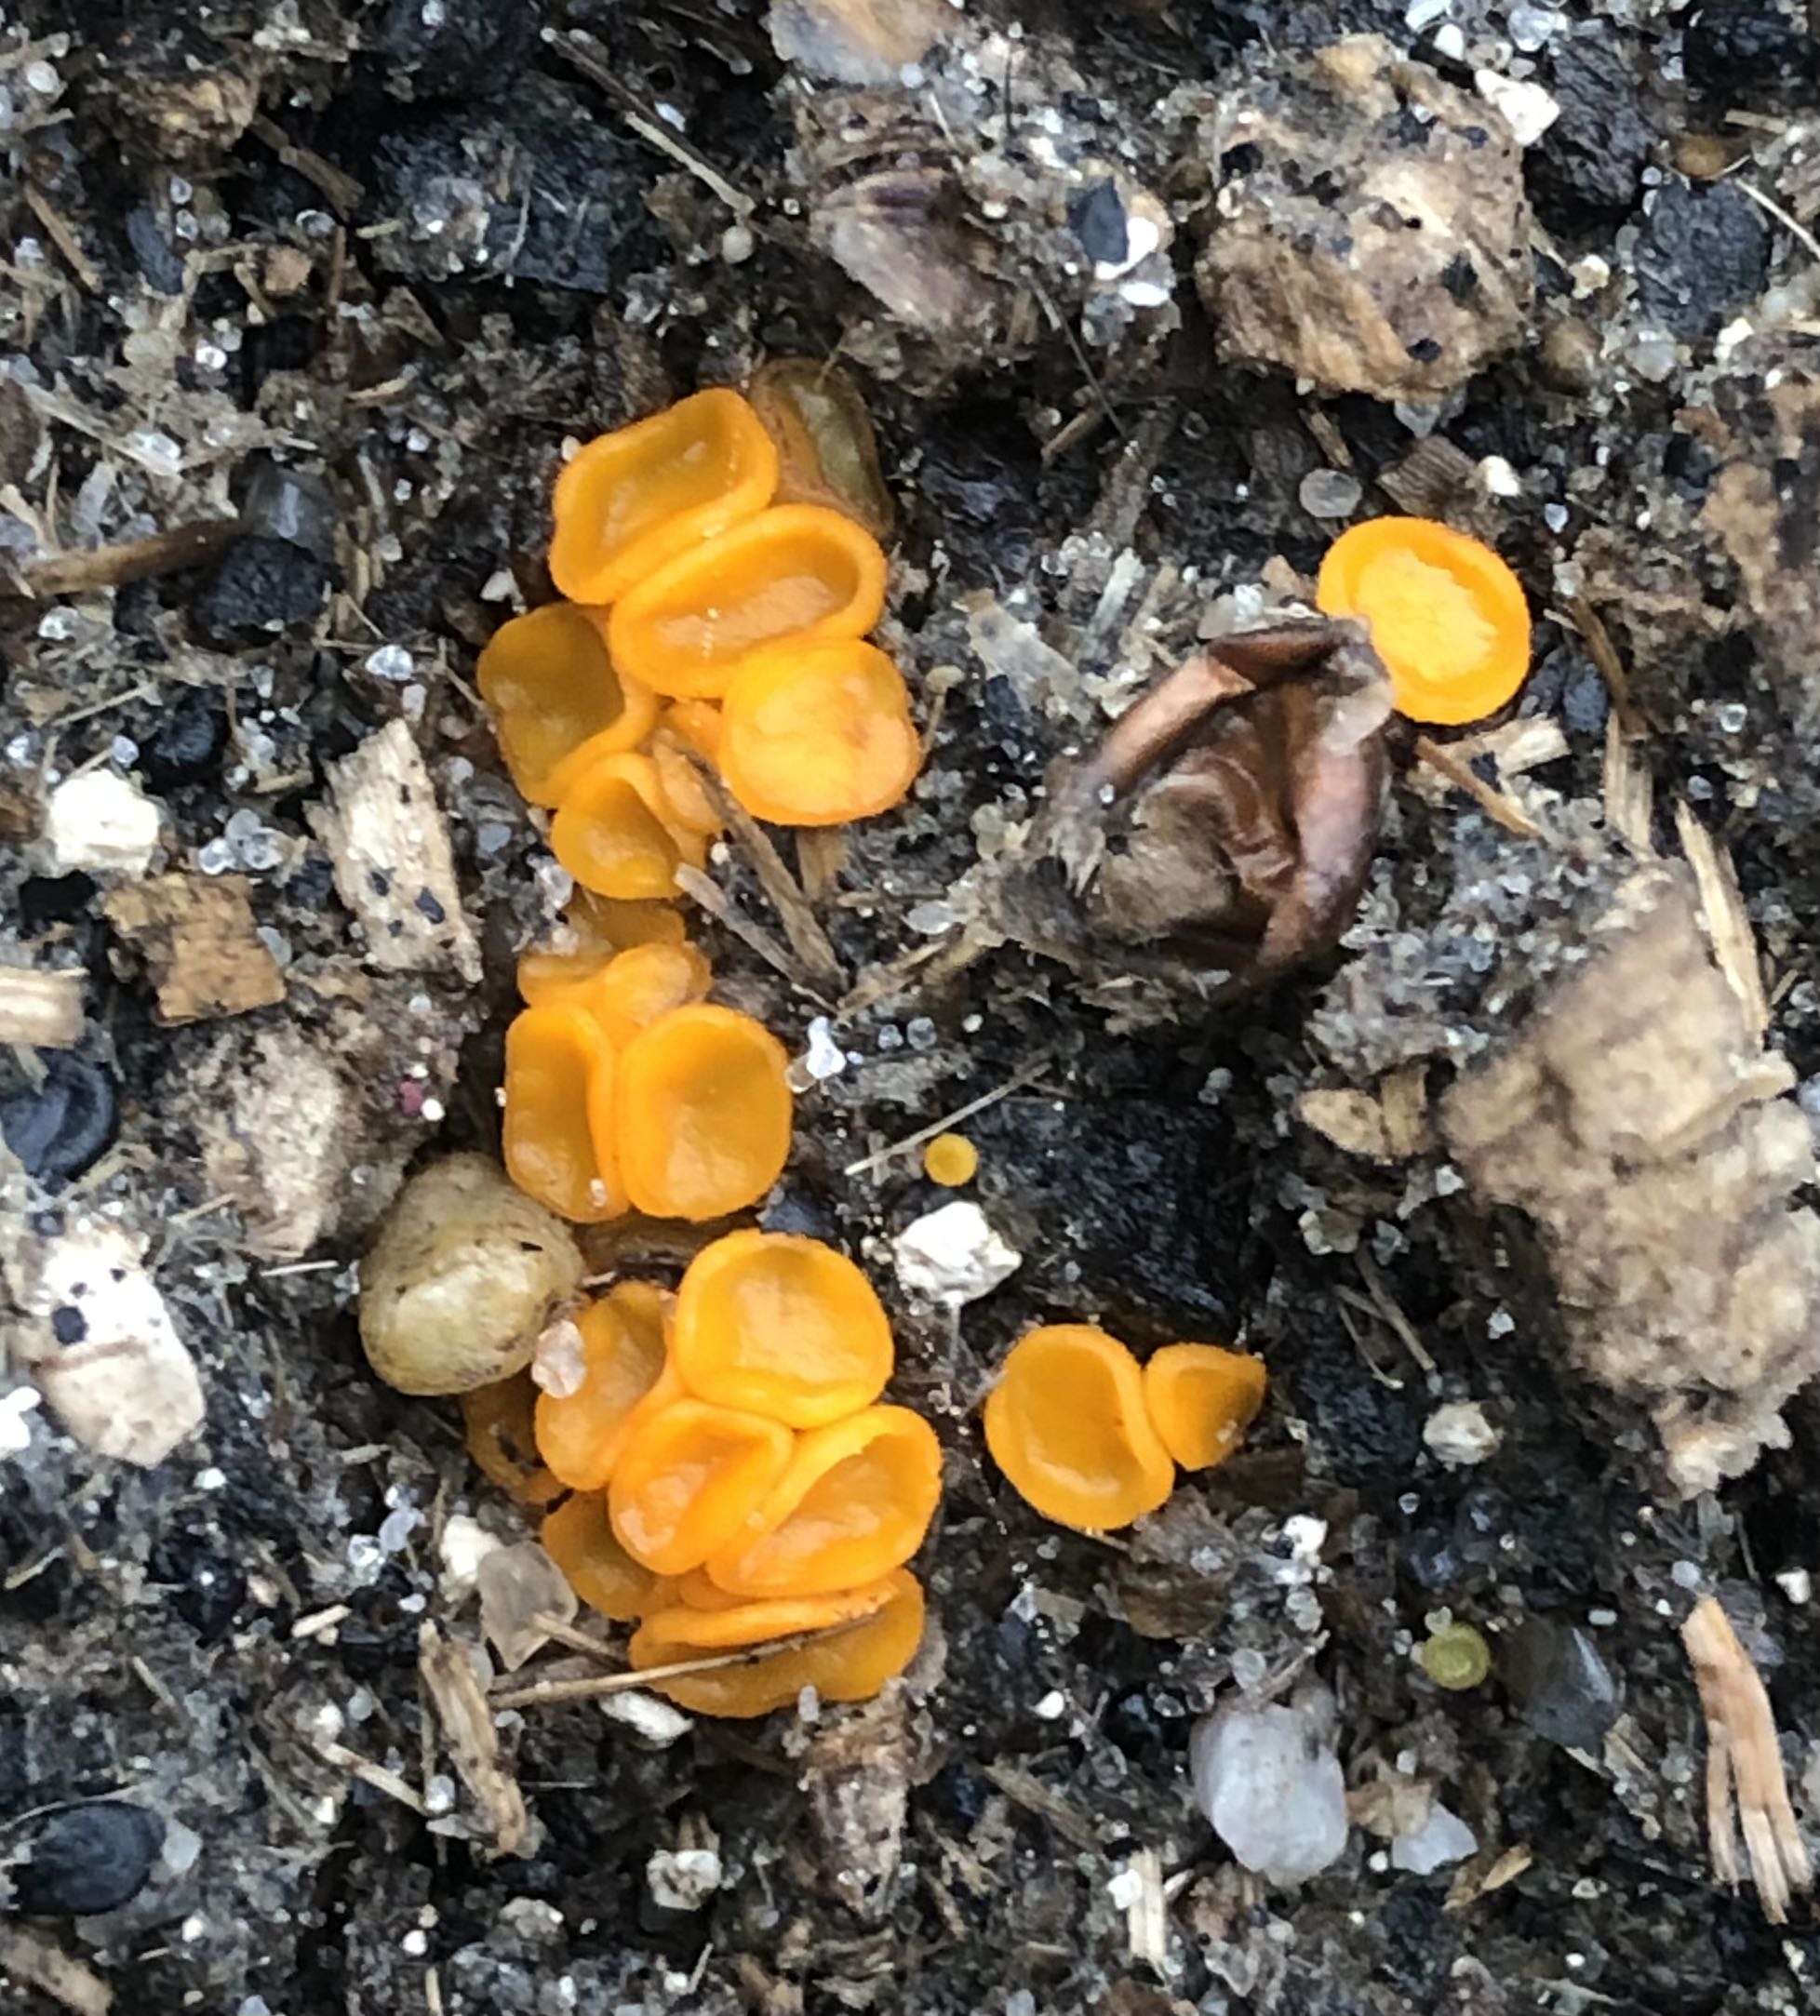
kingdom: Fungi
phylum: Ascomycota
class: Pezizomycetes
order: Pezizales
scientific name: Pezizales
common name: bægersvampordenen
